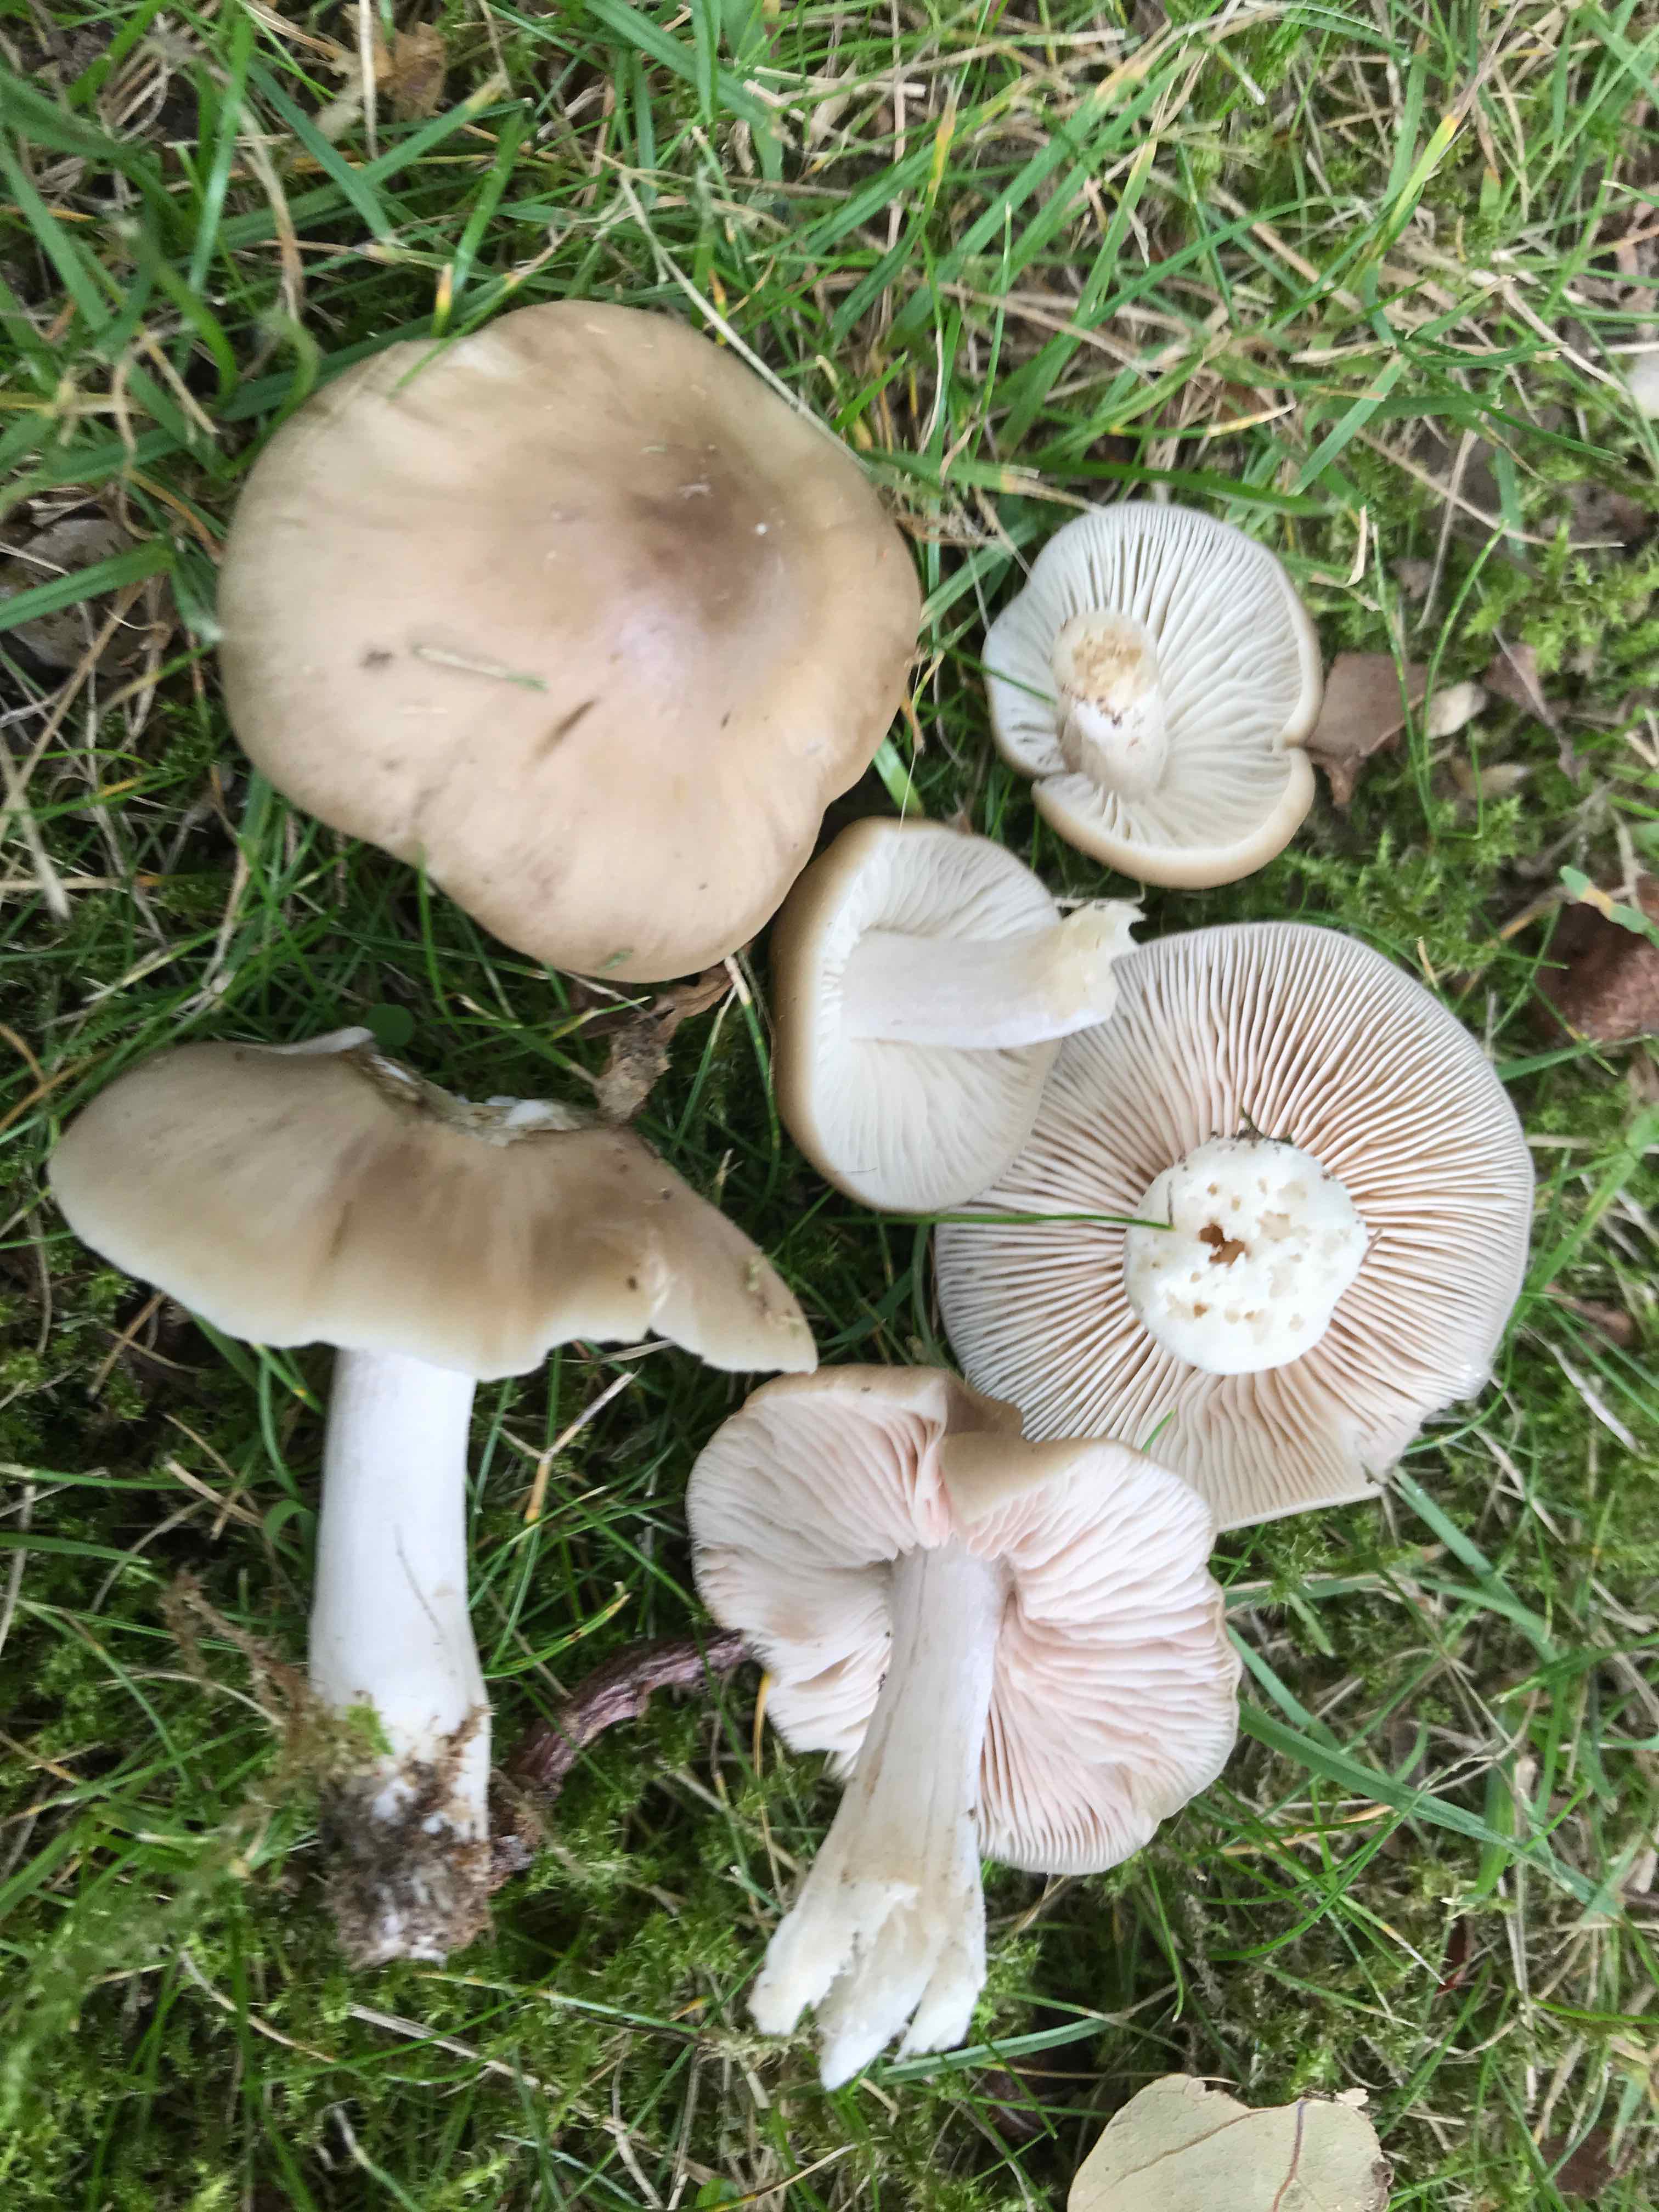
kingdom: Fungi
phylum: Basidiomycota
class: Agaricomycetes
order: Agaricales
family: Entolomataceae
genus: Entoloma
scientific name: Entoloma lividoalbum
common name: lysstokket rødblad
